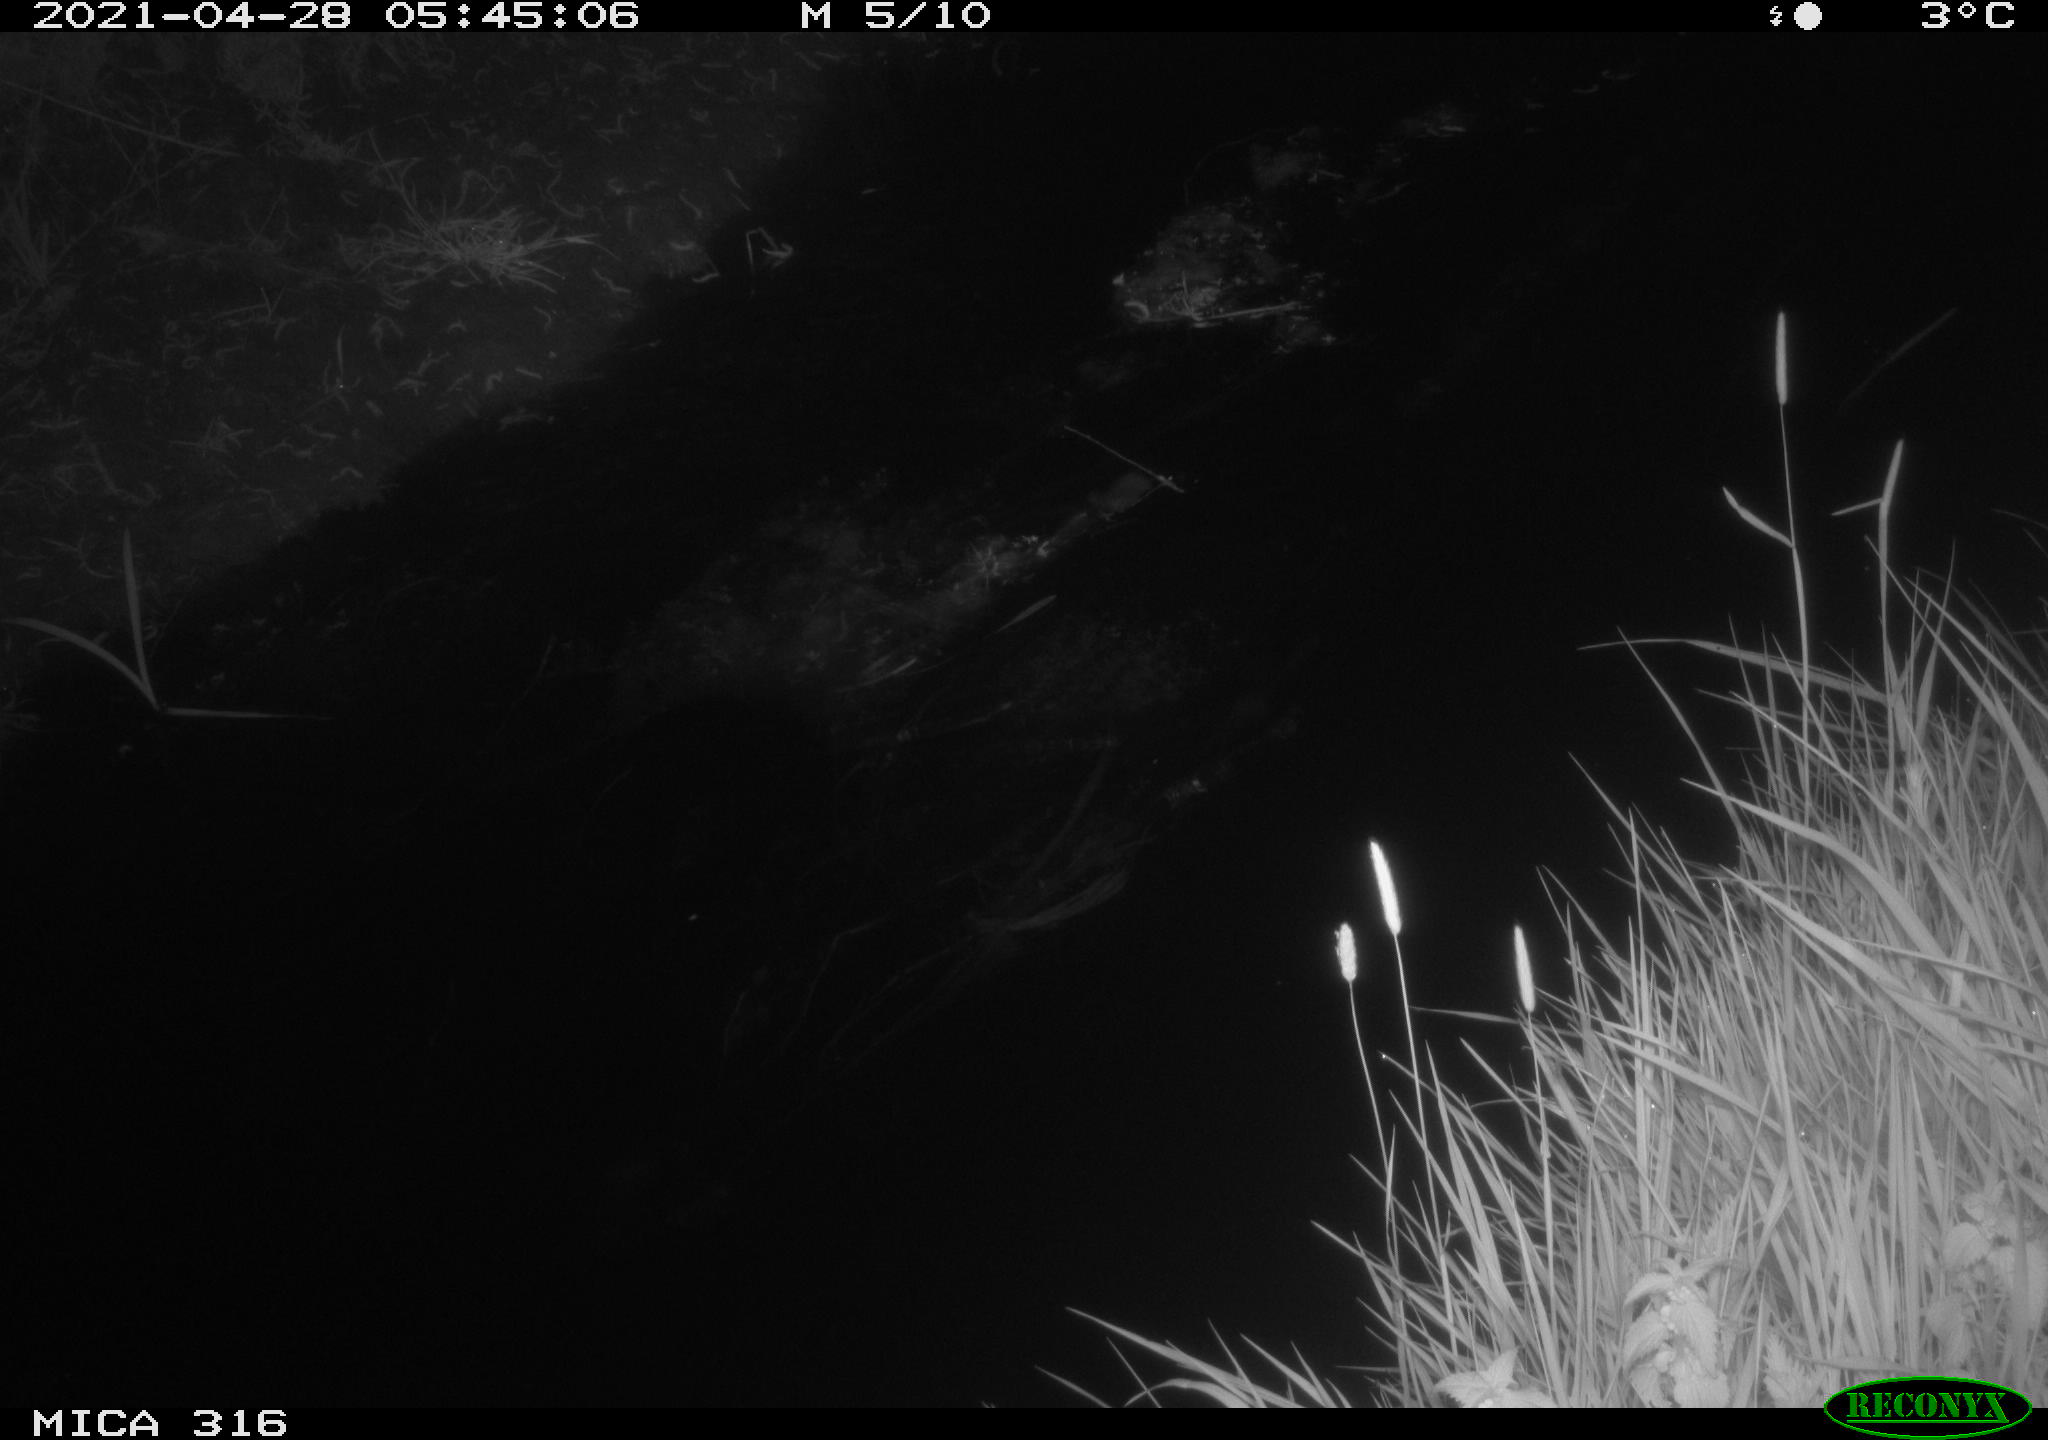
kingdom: Animalia
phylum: Chordata
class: Aves
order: Gruiformes
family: Rallidae
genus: Gallinula
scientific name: Gallinula chloropus
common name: Common moorhen
